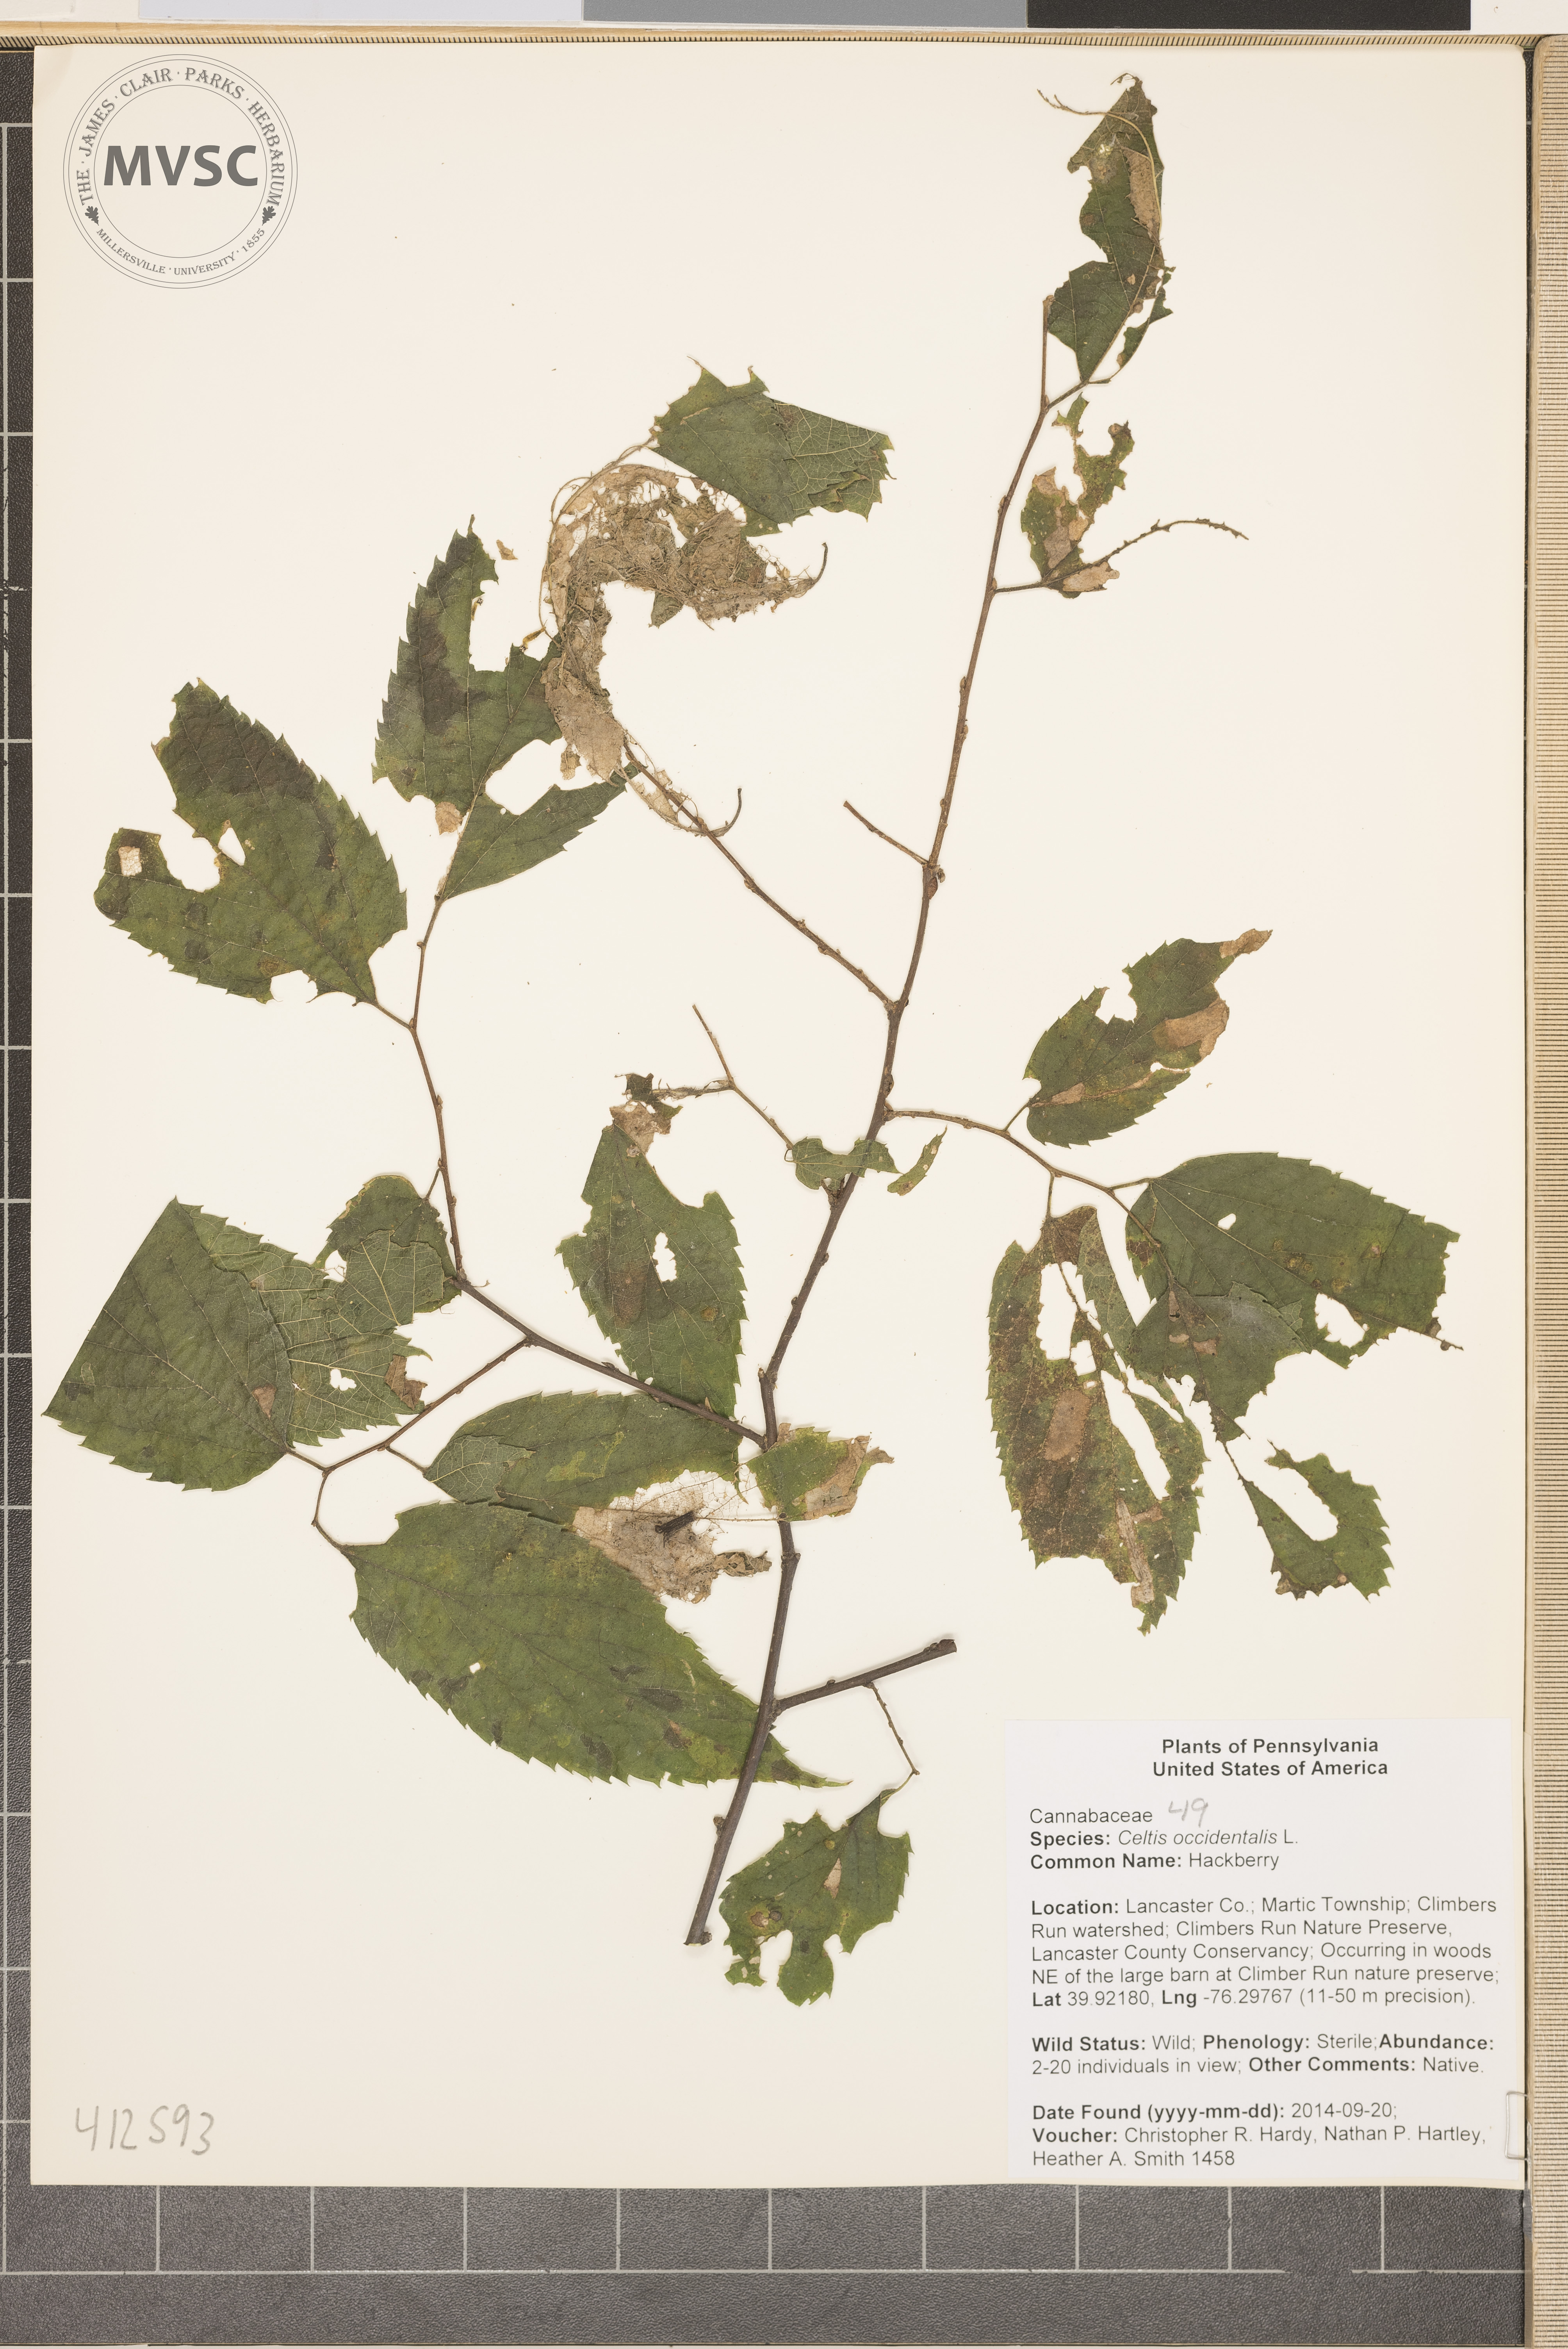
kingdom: Plantae
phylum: Tracheophyta
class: Magnoliopsida
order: Rosales
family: Cannabaceae
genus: Celtis
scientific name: Celtis occidentalis
